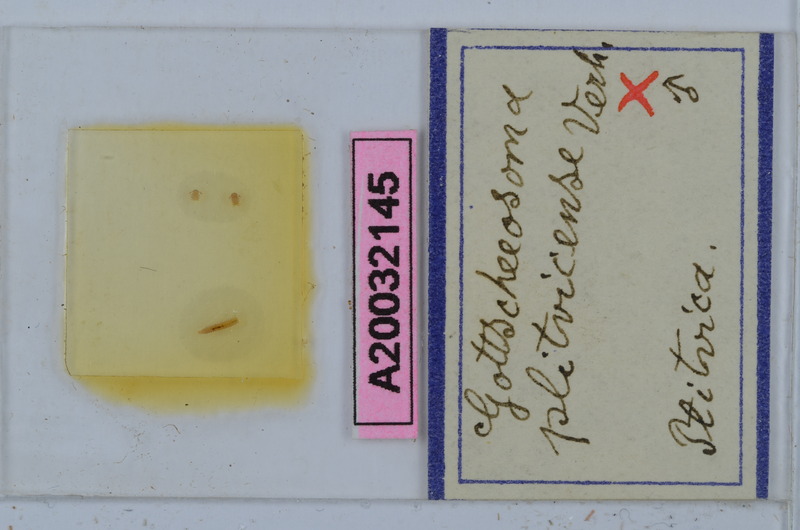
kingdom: Animalia
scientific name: Animalia
